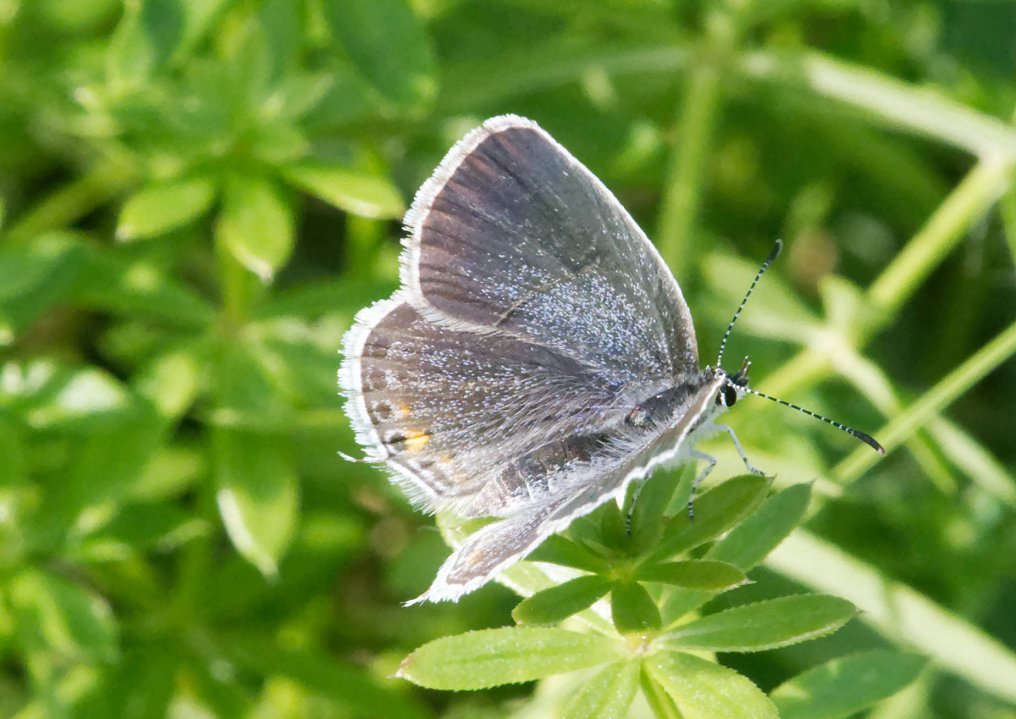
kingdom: Animalia
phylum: Arthropoda
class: Insecta
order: Lepidoptera
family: Lycaenidae
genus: Elkalyce
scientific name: Elkalyce comyntas
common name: Eastern Tailed-Blue
